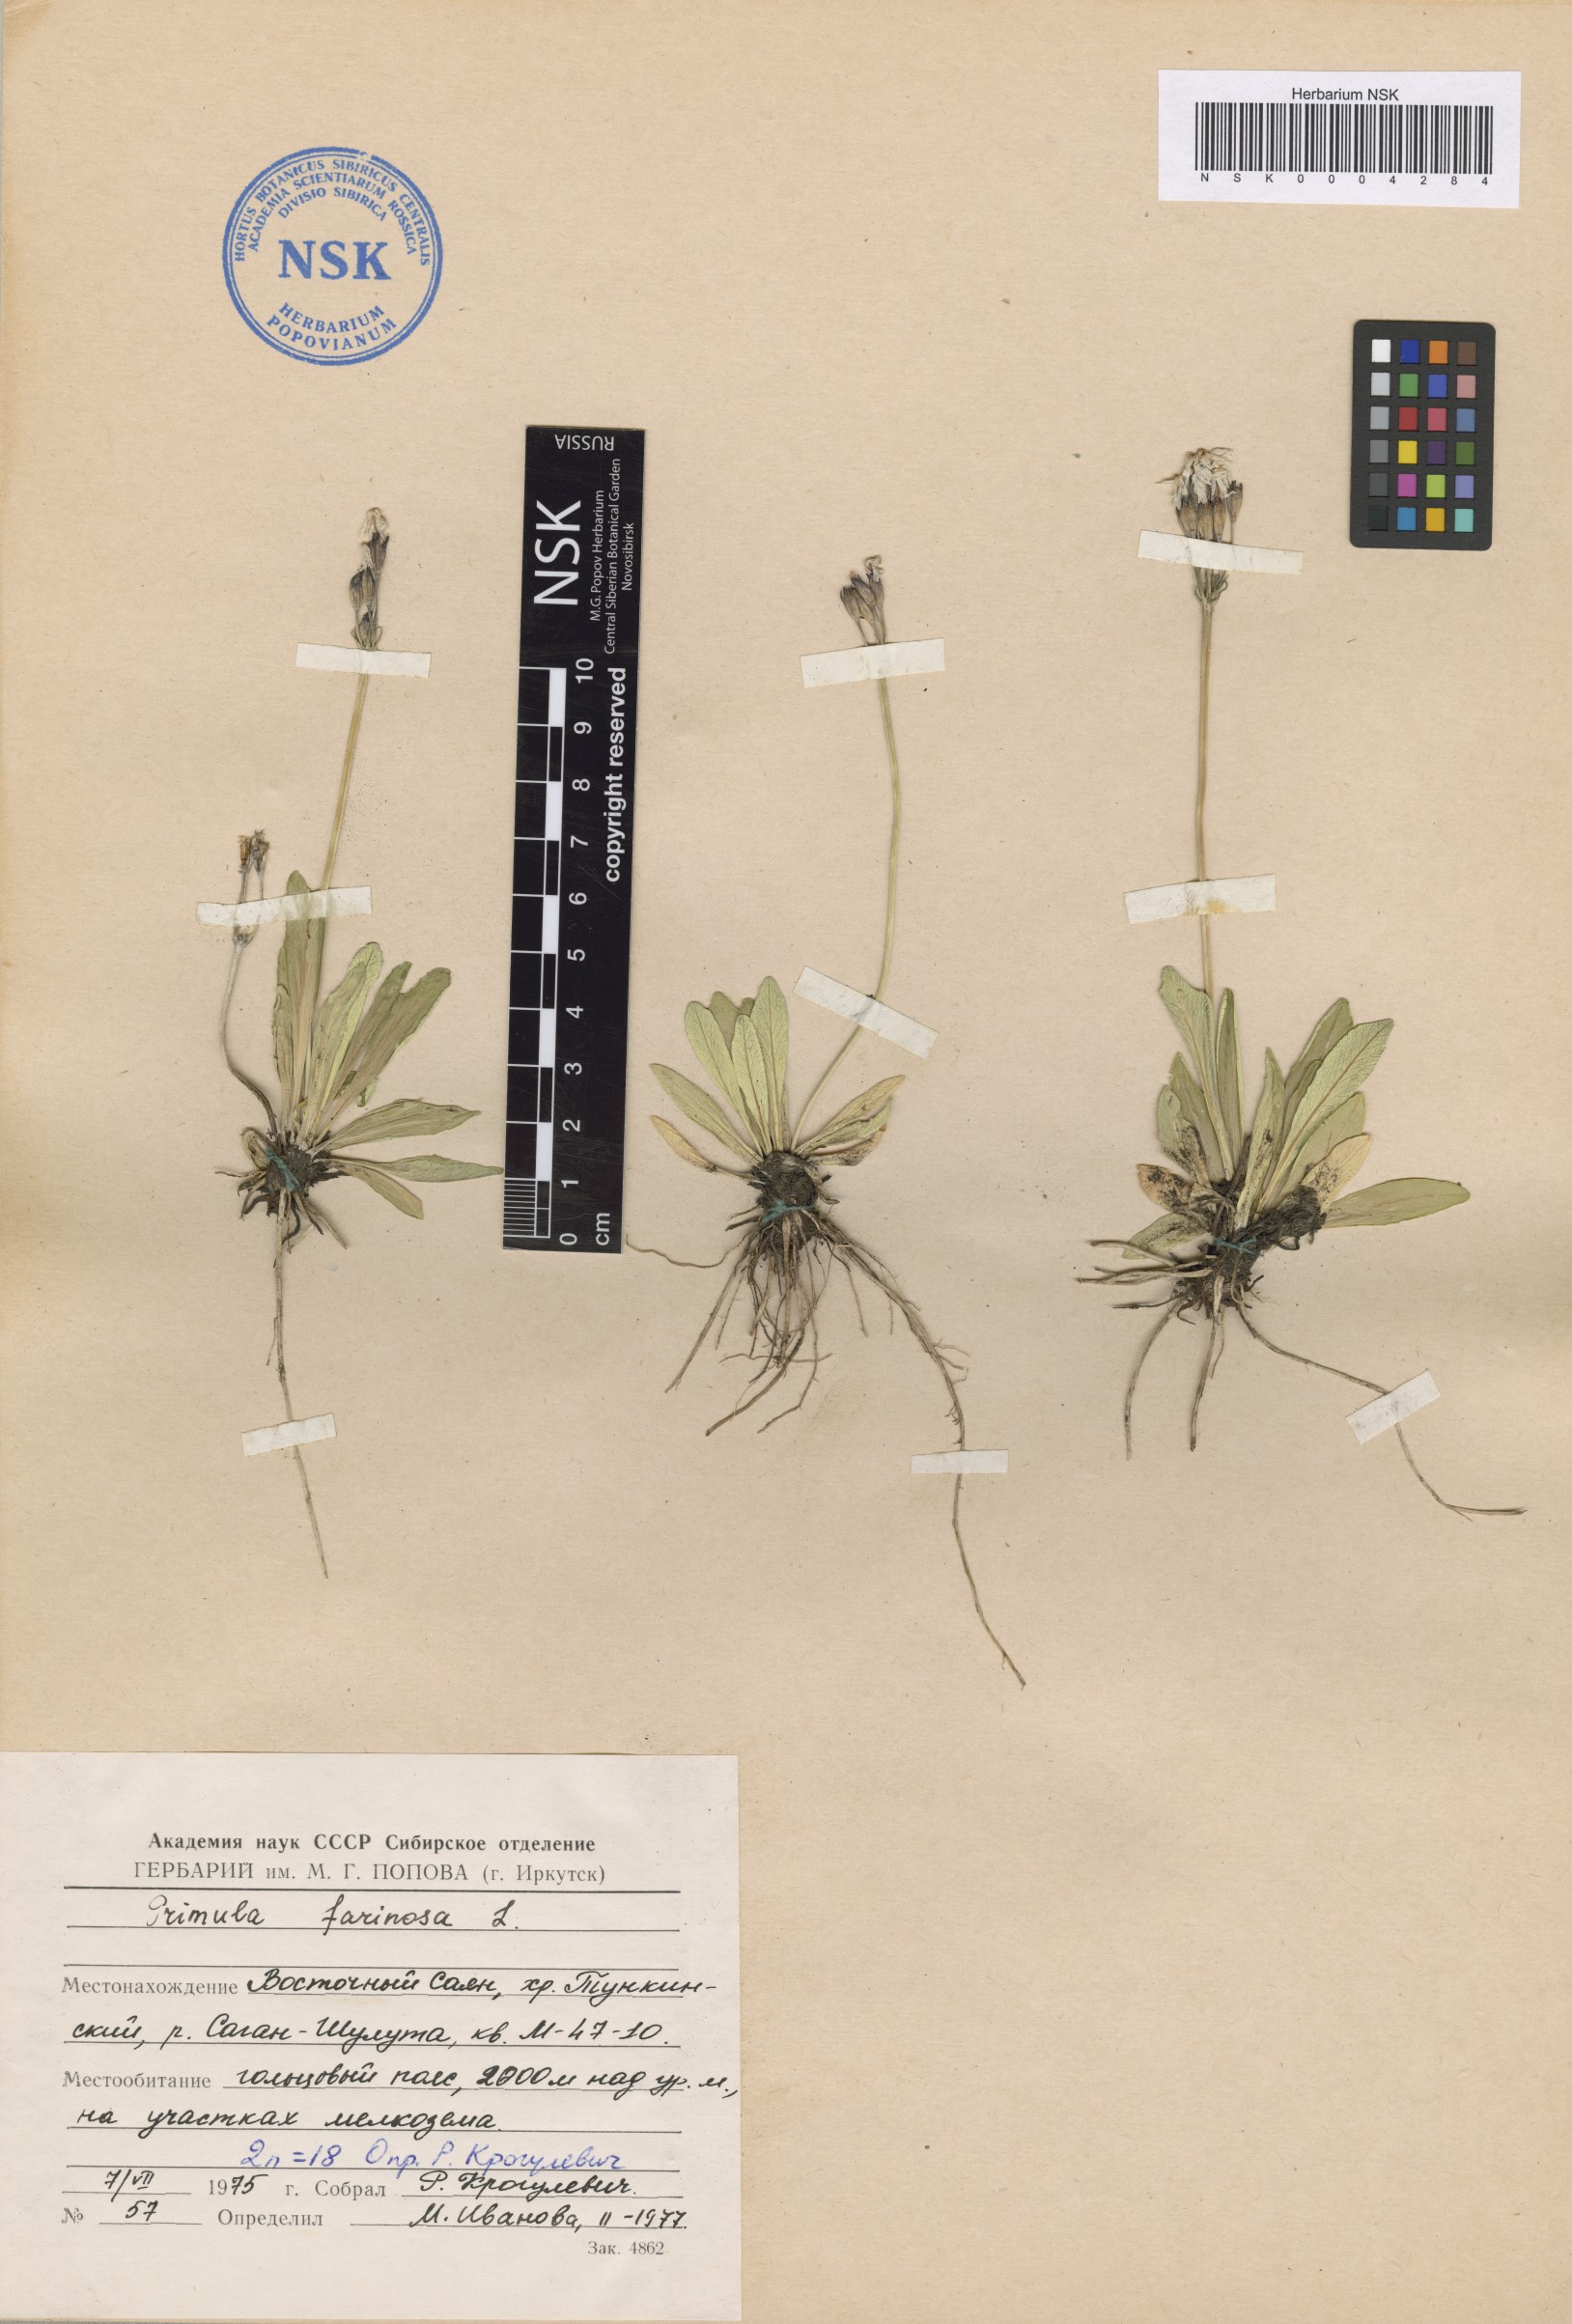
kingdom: Plantae
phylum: Tracheophyta
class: Magnoliopsida
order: Ericales
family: Primulaceae
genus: Primula
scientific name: Primula farinosa
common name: Bird's-eye primrose
